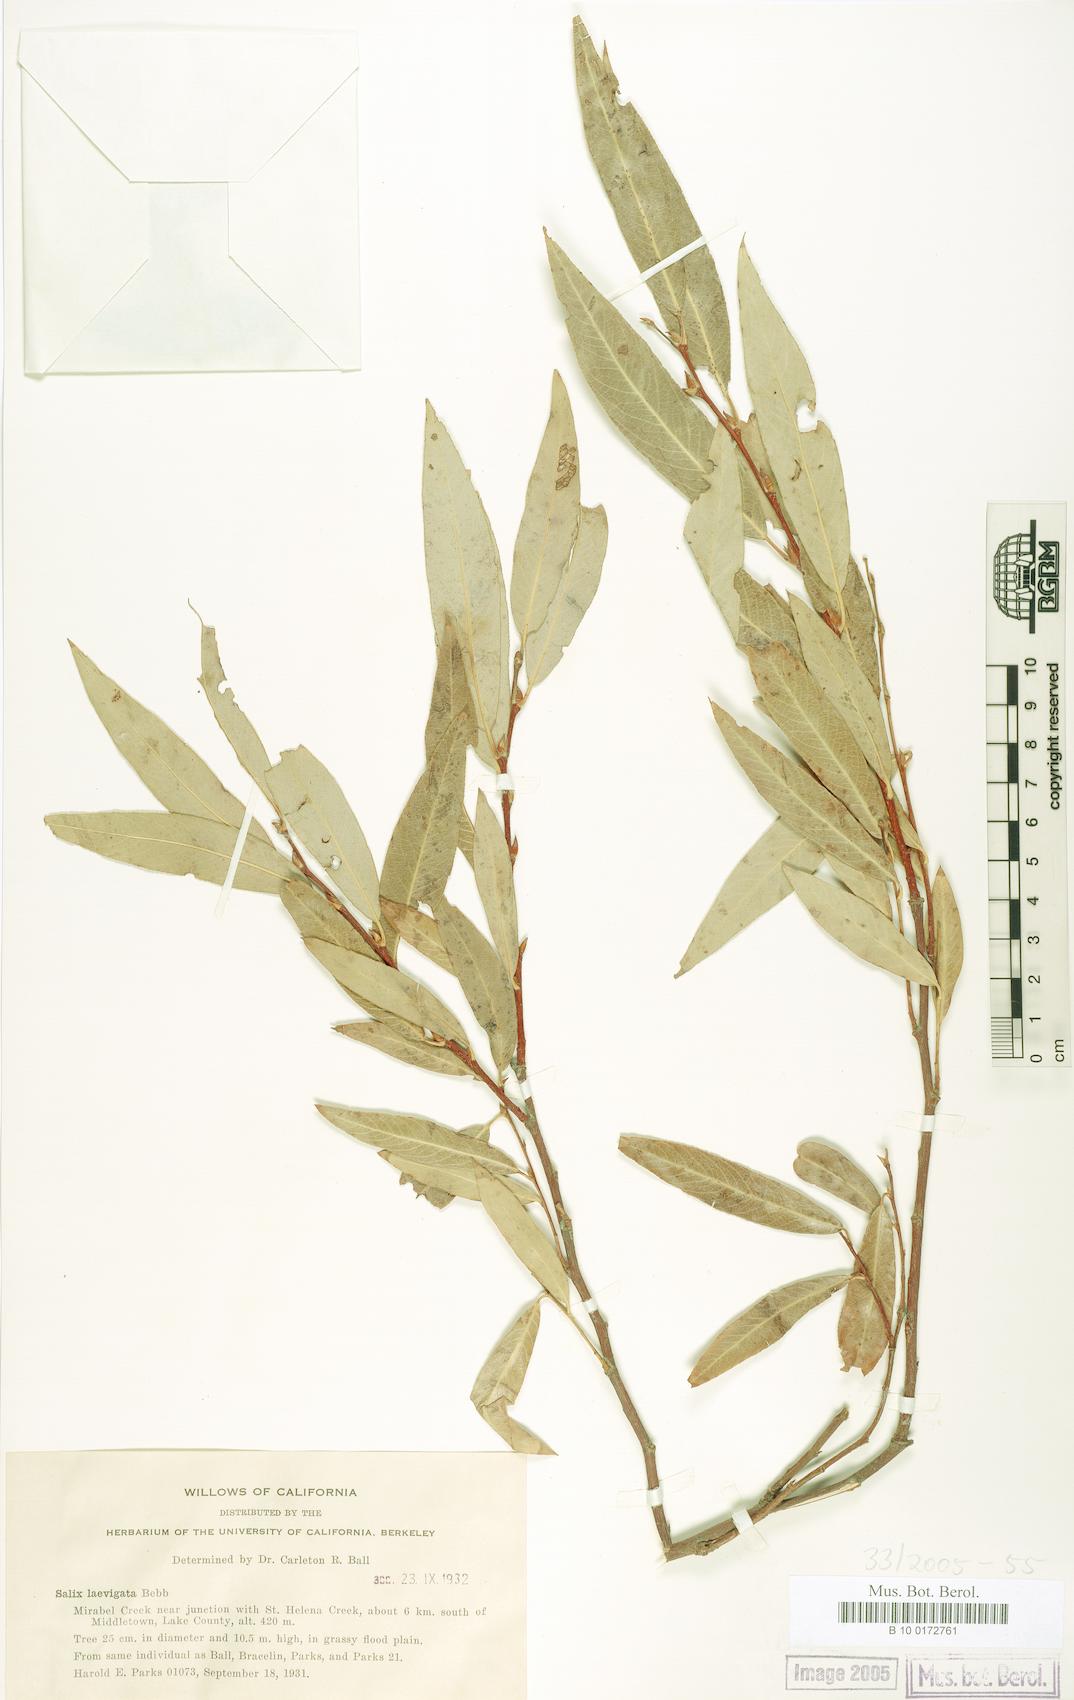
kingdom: Plantae
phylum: Tracheophyta
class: Magnoliopsida
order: Malpighiales
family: Salicaceae
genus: Salix
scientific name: Salix laevigata
